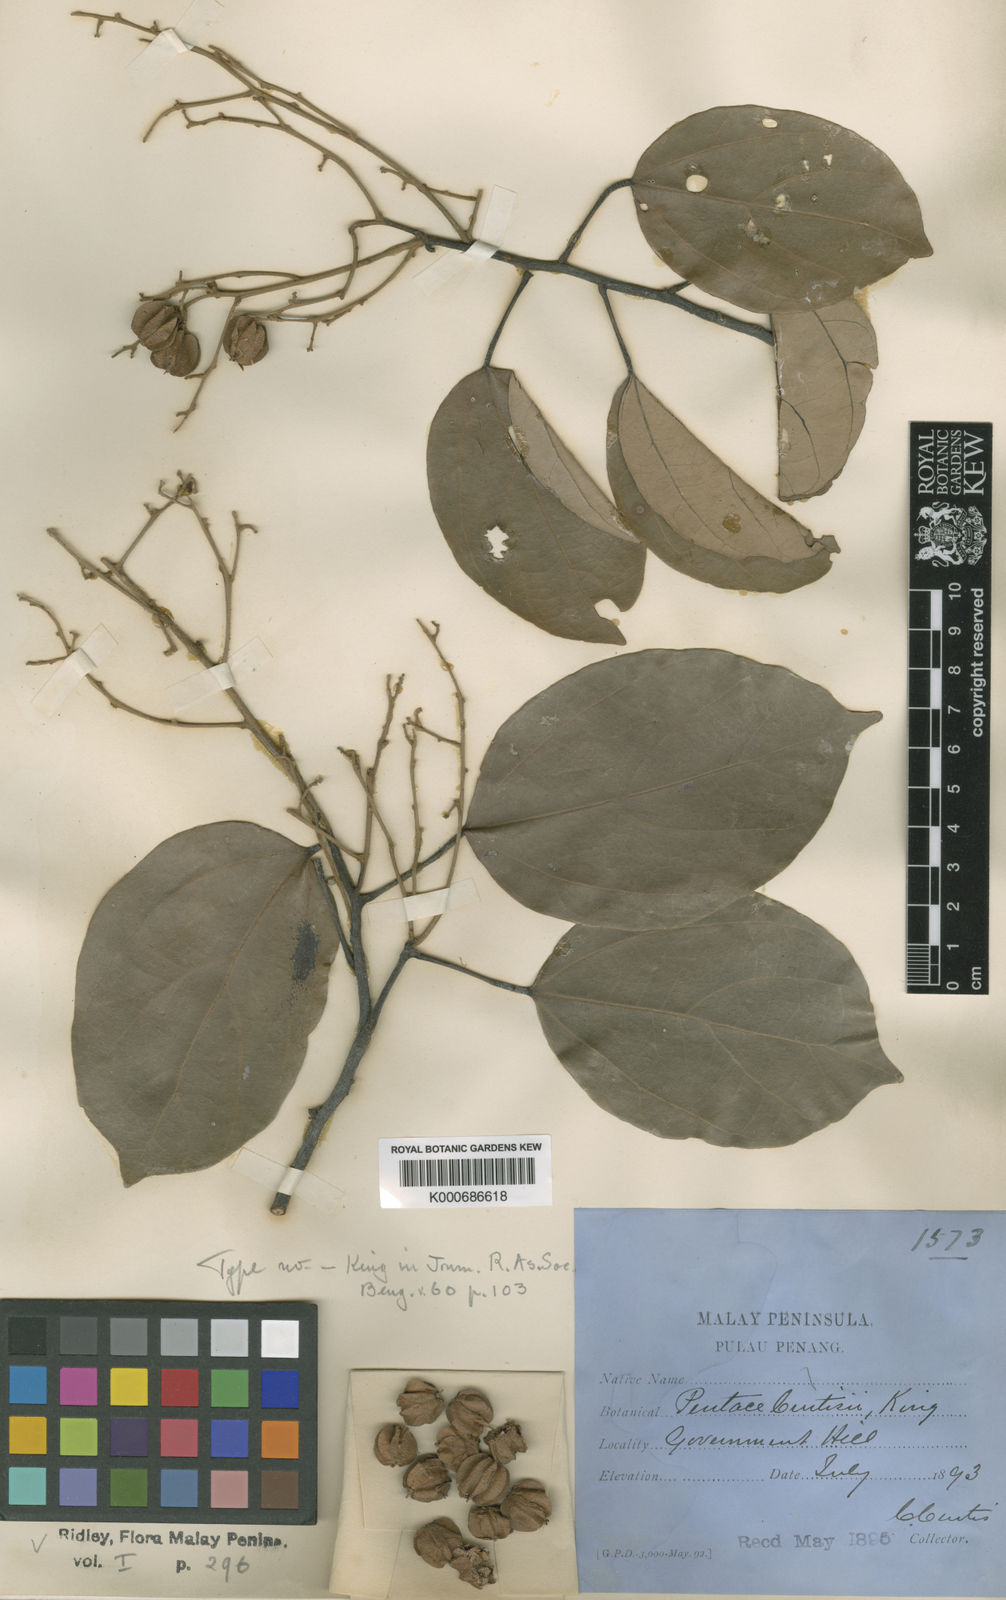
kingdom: Plantae
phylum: Tracheophyta
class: Magnoliopsida
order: Malvales
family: Malvaceae
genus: Pentace
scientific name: Pentace curtisii
